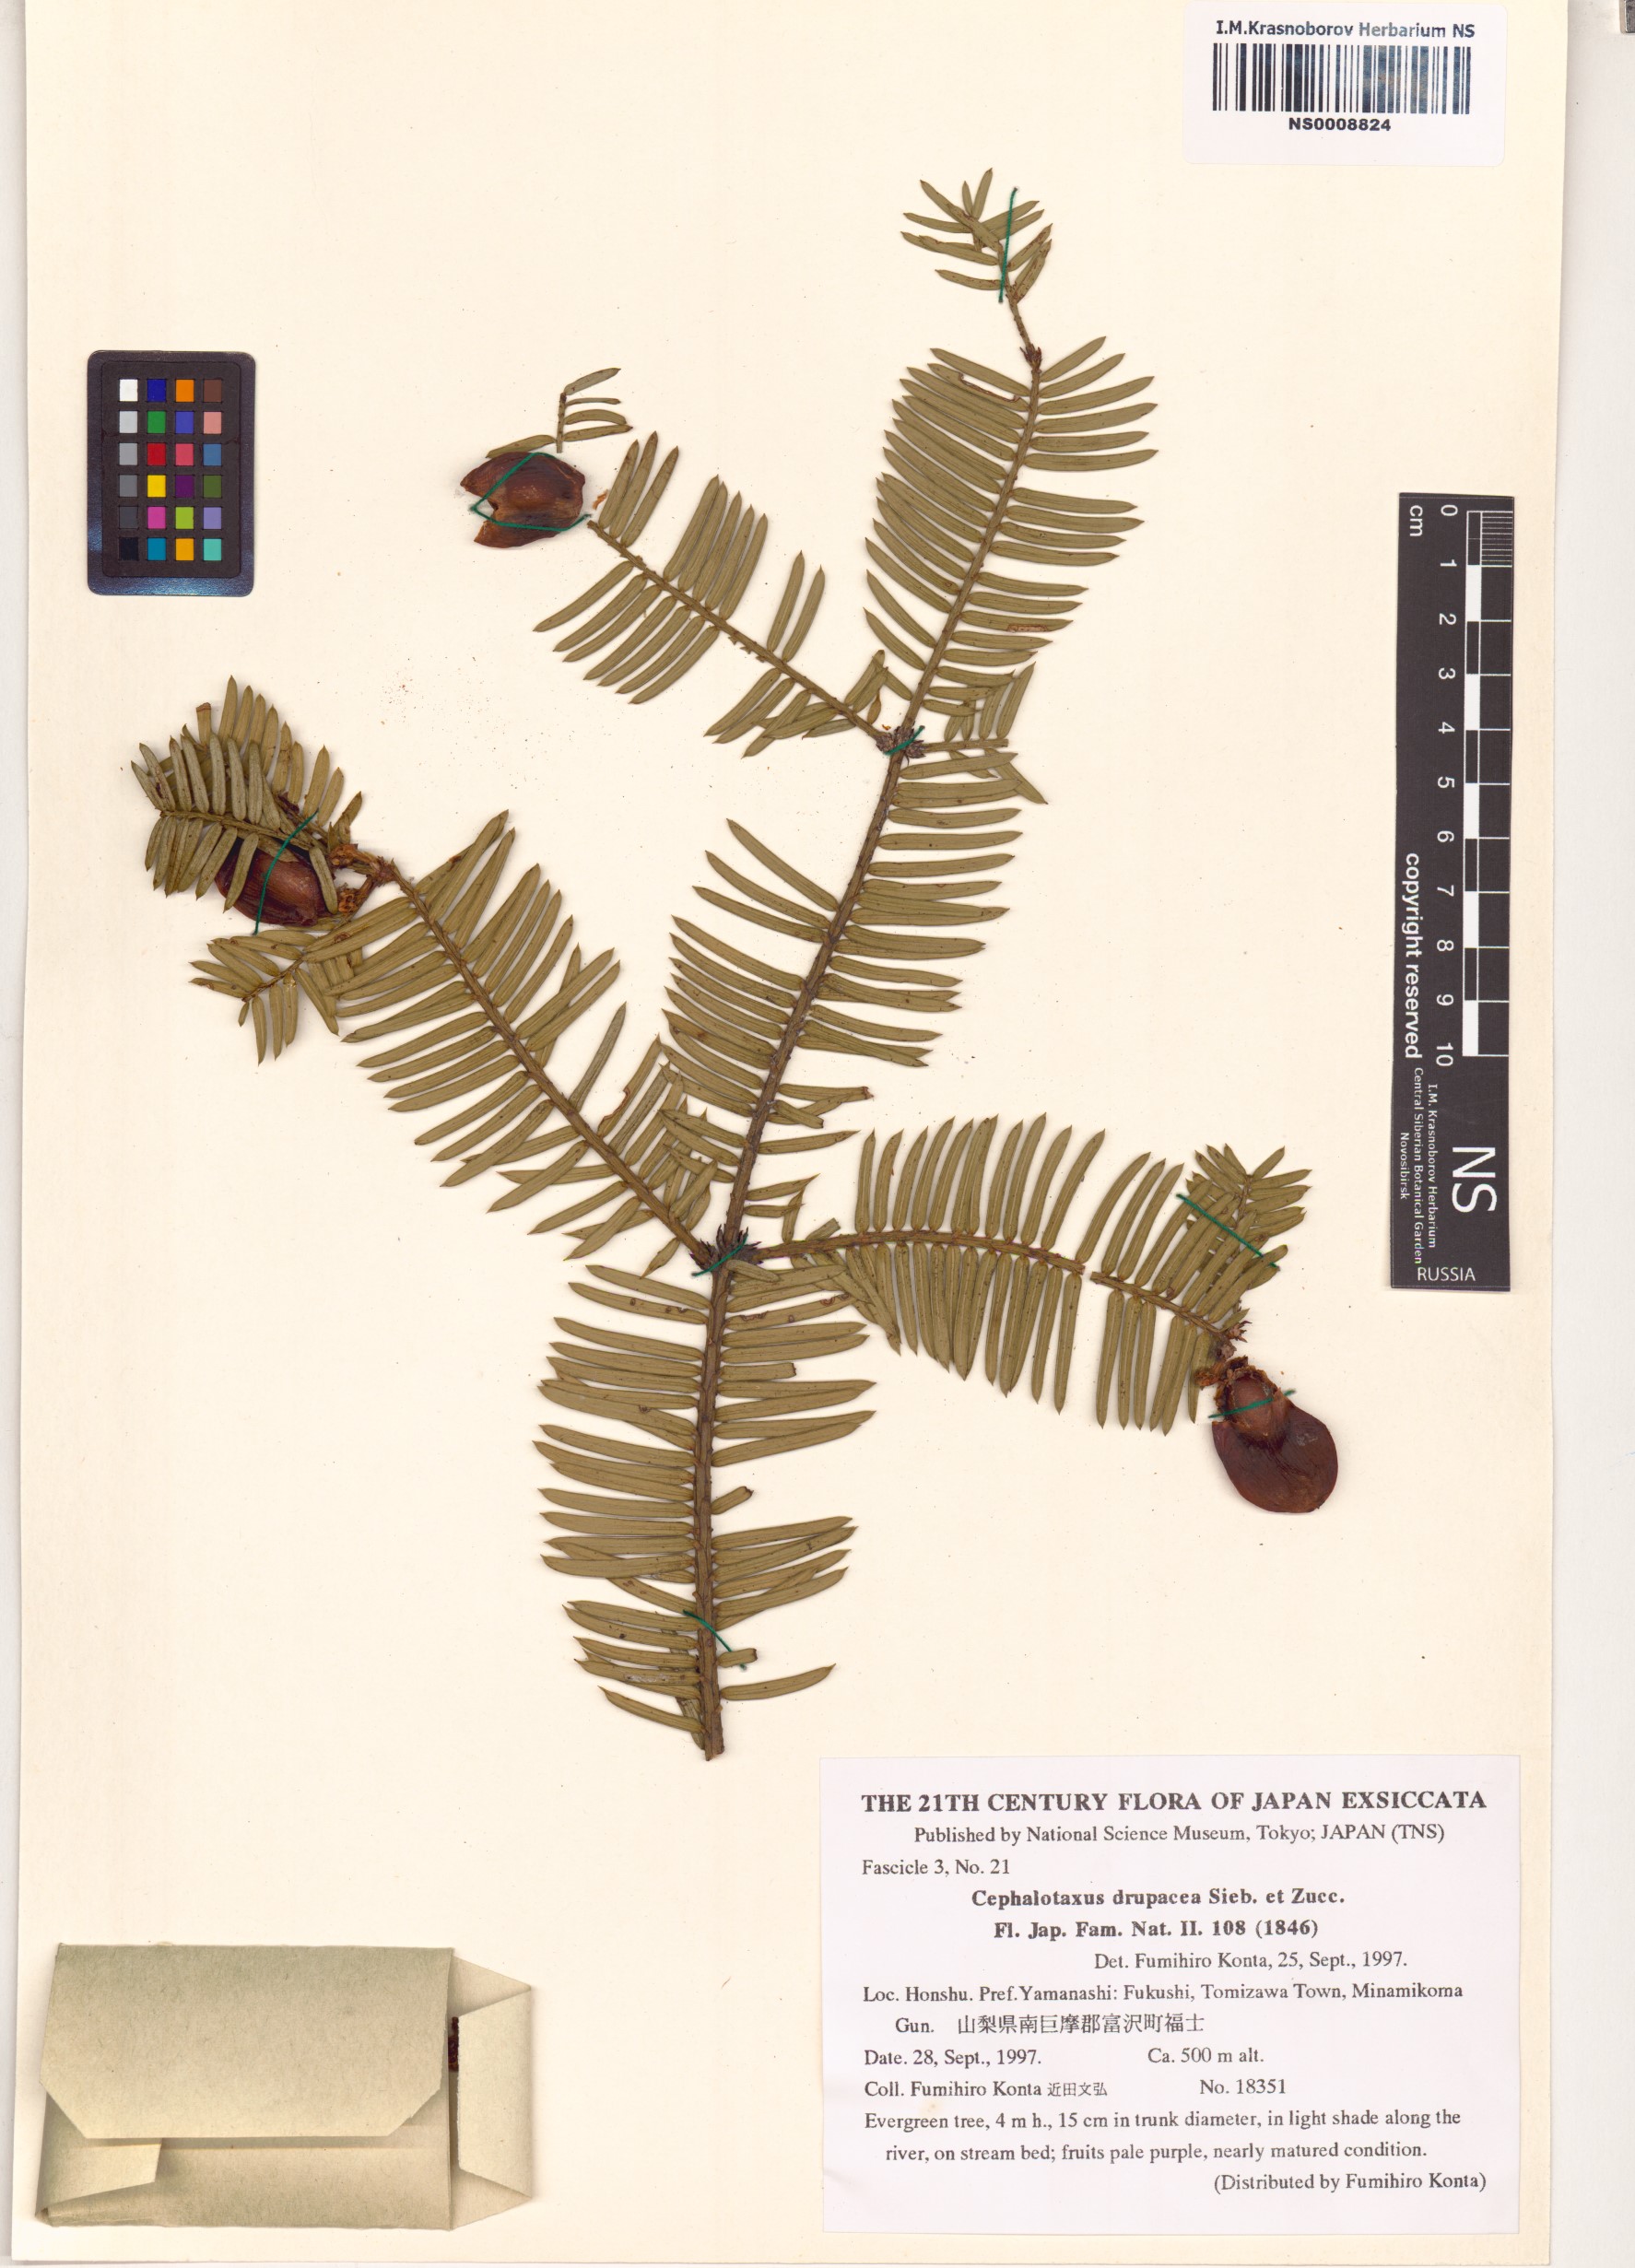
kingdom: Plantae
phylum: Tracheophyta
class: Pinopsida
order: Pinales
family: Cephalotaxaceae
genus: Cephalotaxus
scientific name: Cephalotaxus harringtonii
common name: Harrington's plum yew
